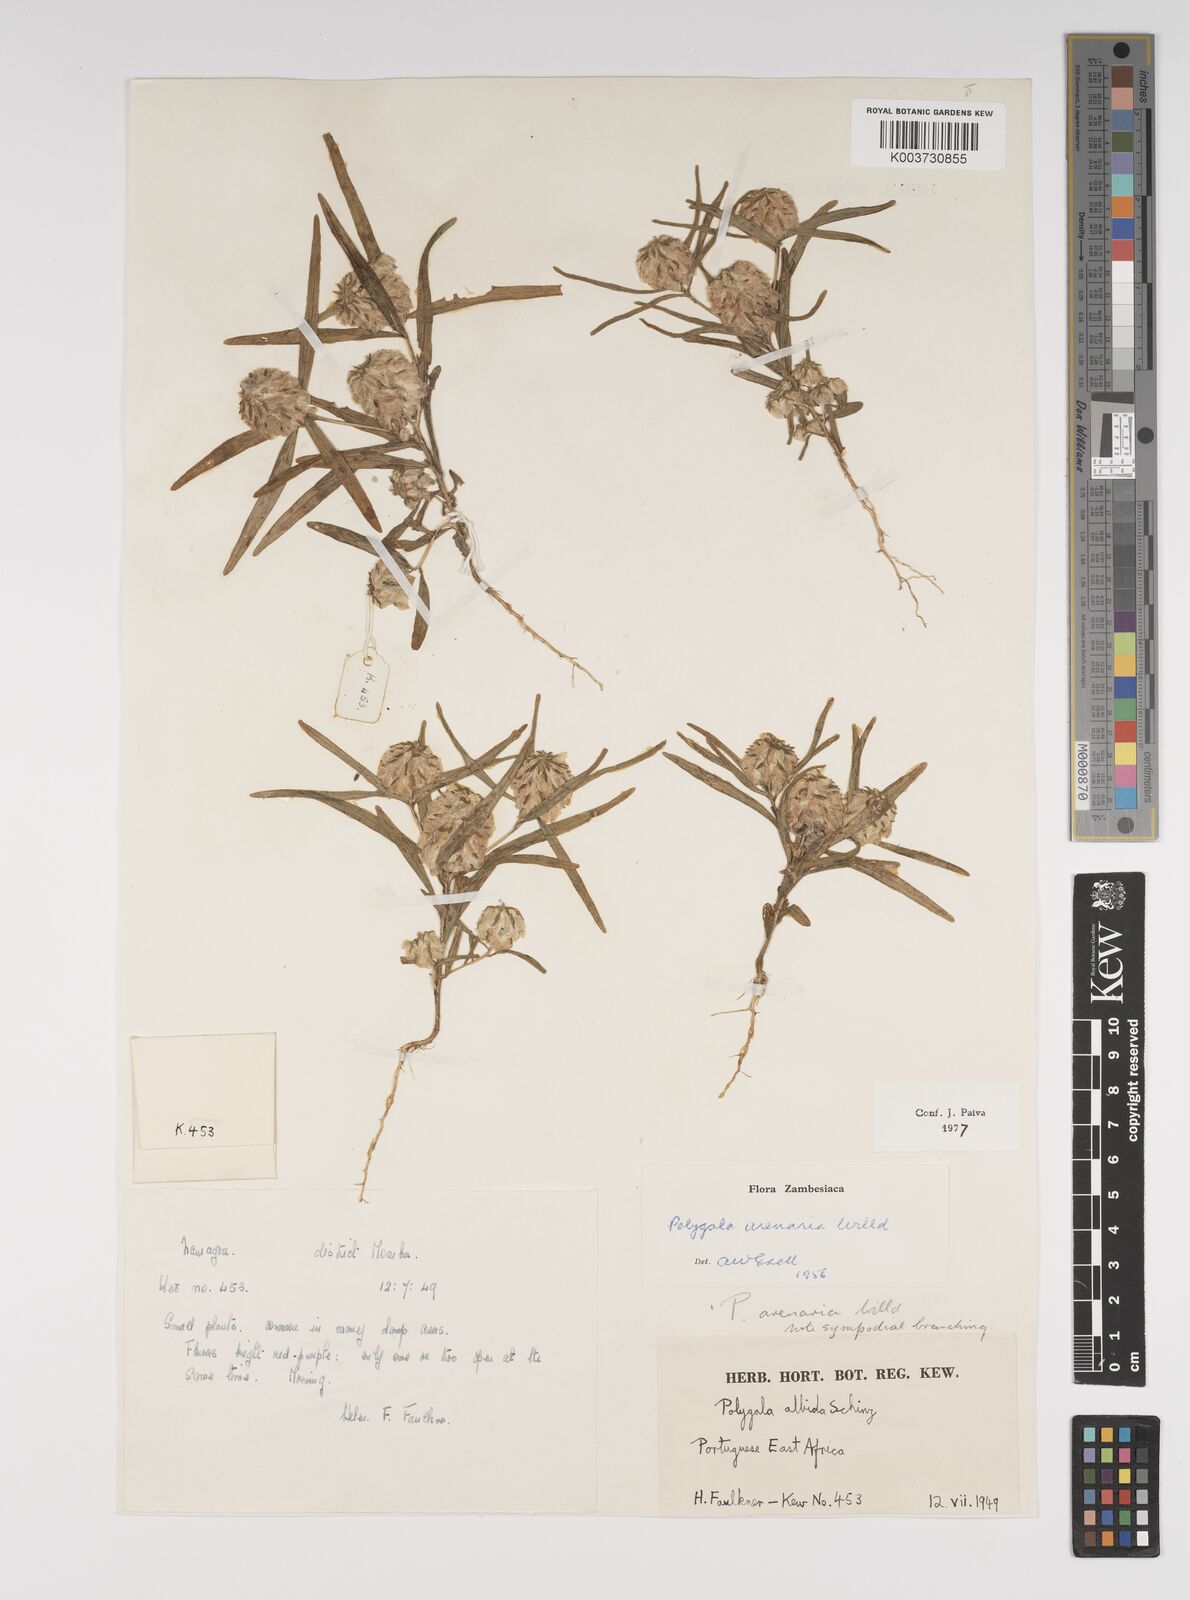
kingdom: Plantae
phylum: Tracheophyta
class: Magnoliopsida
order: Fabales
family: Polygalaceae
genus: Polygala
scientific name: Polygala arenaria
